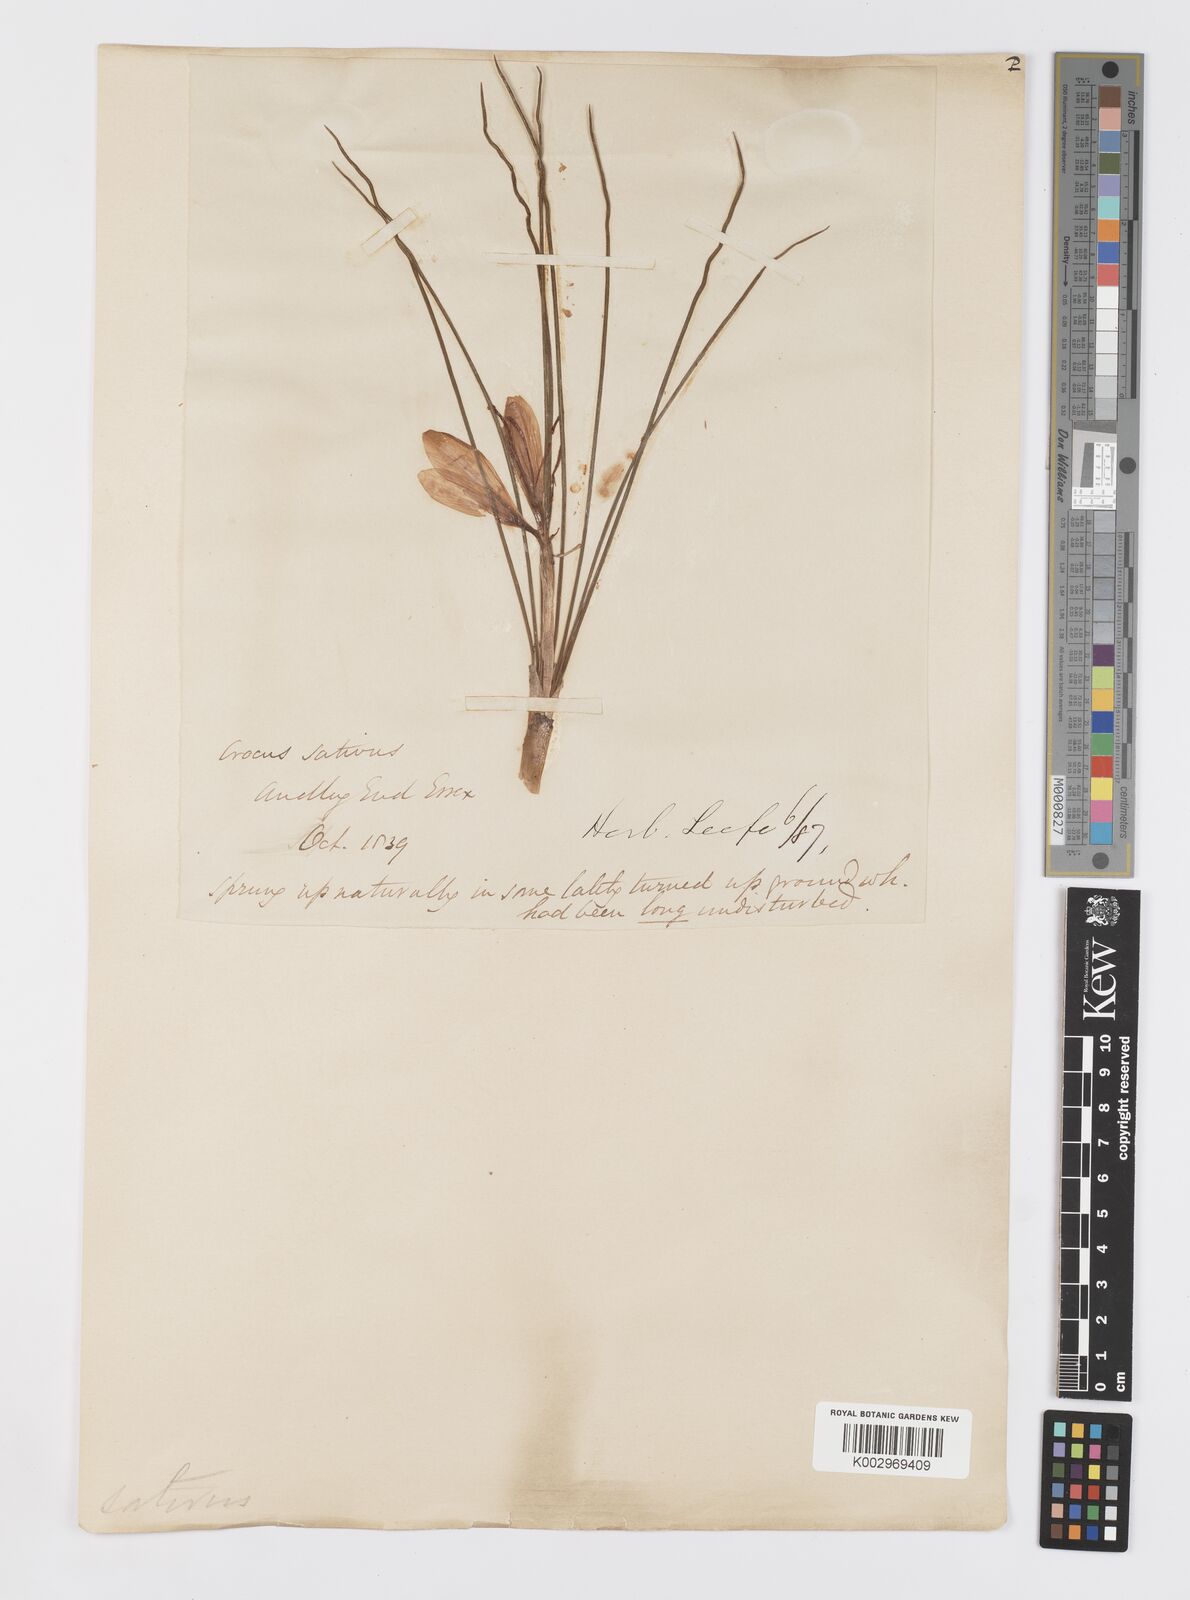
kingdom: Plantae
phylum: Tracheophyta
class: Liliopsida
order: Asparagales
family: Iridaceae
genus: Crocus
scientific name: Crocus sativus
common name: Saffron crocus
